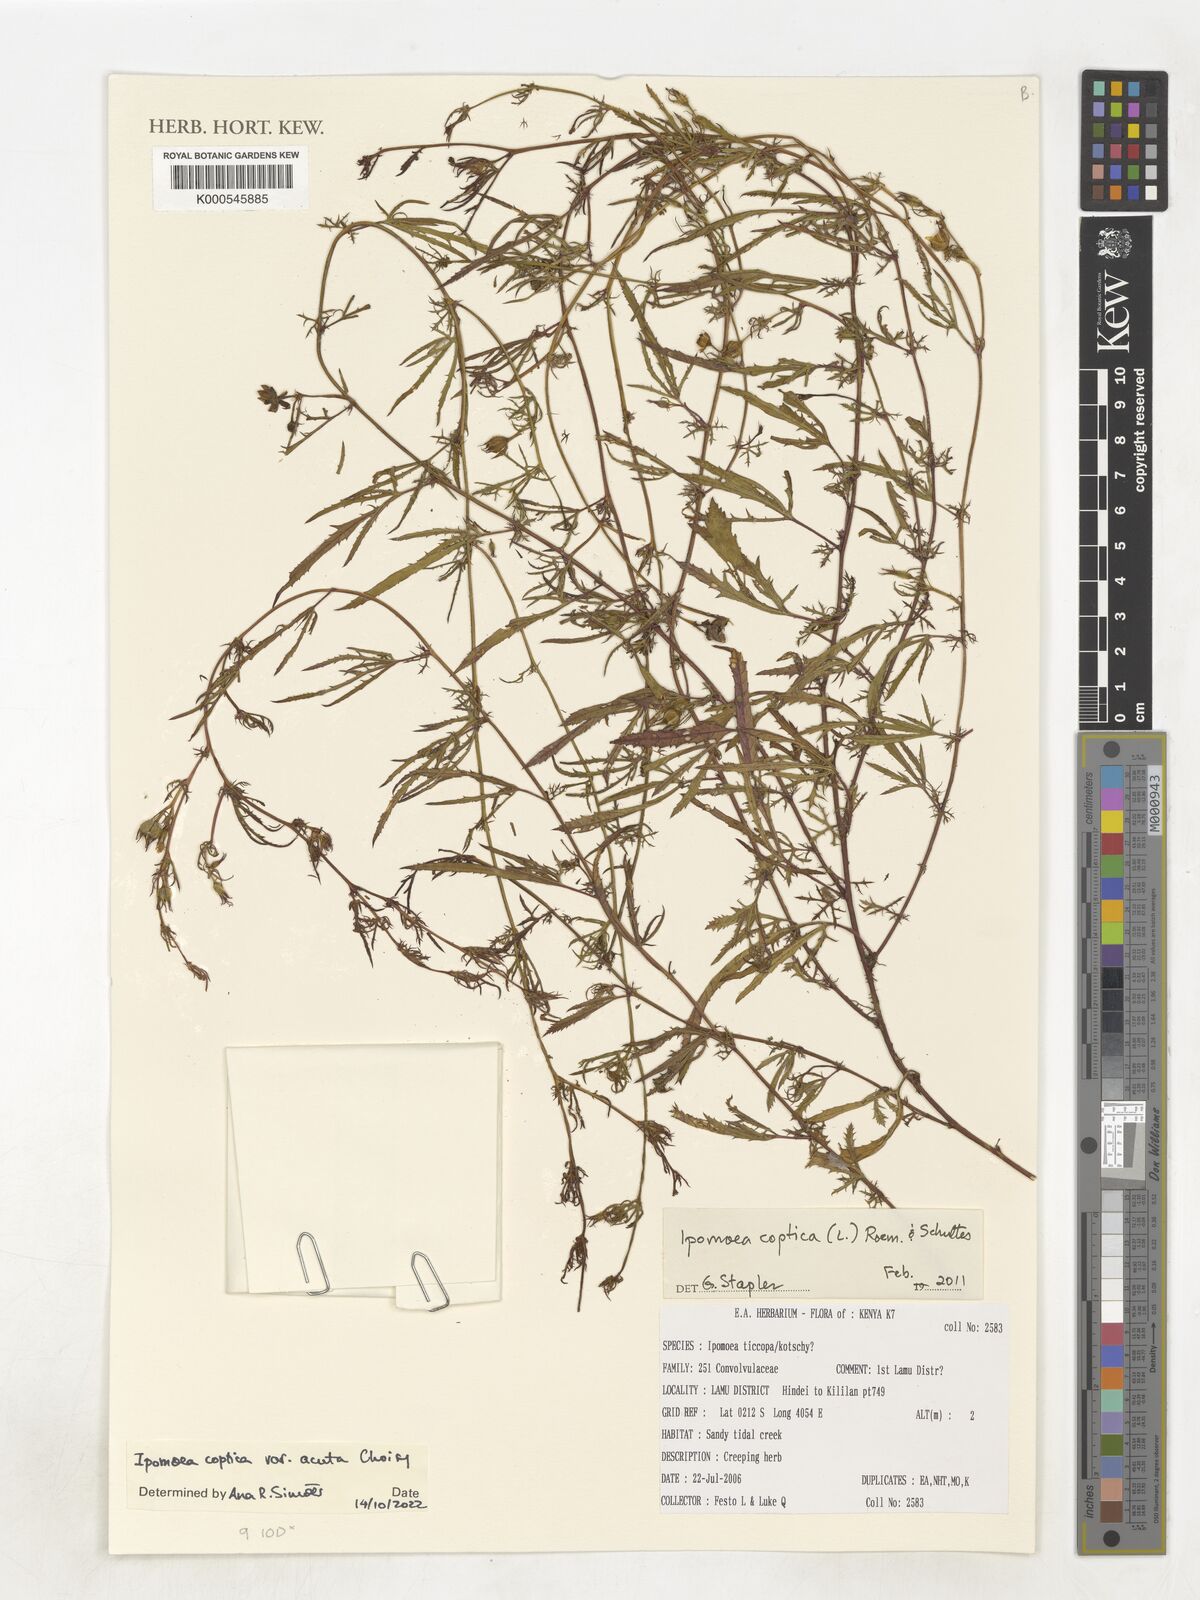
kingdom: Plantae
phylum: Tracheophyta
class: Magnoliopsida
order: Solanales
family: Convolvulaceae
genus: Ipomoea
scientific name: Ipomoea
